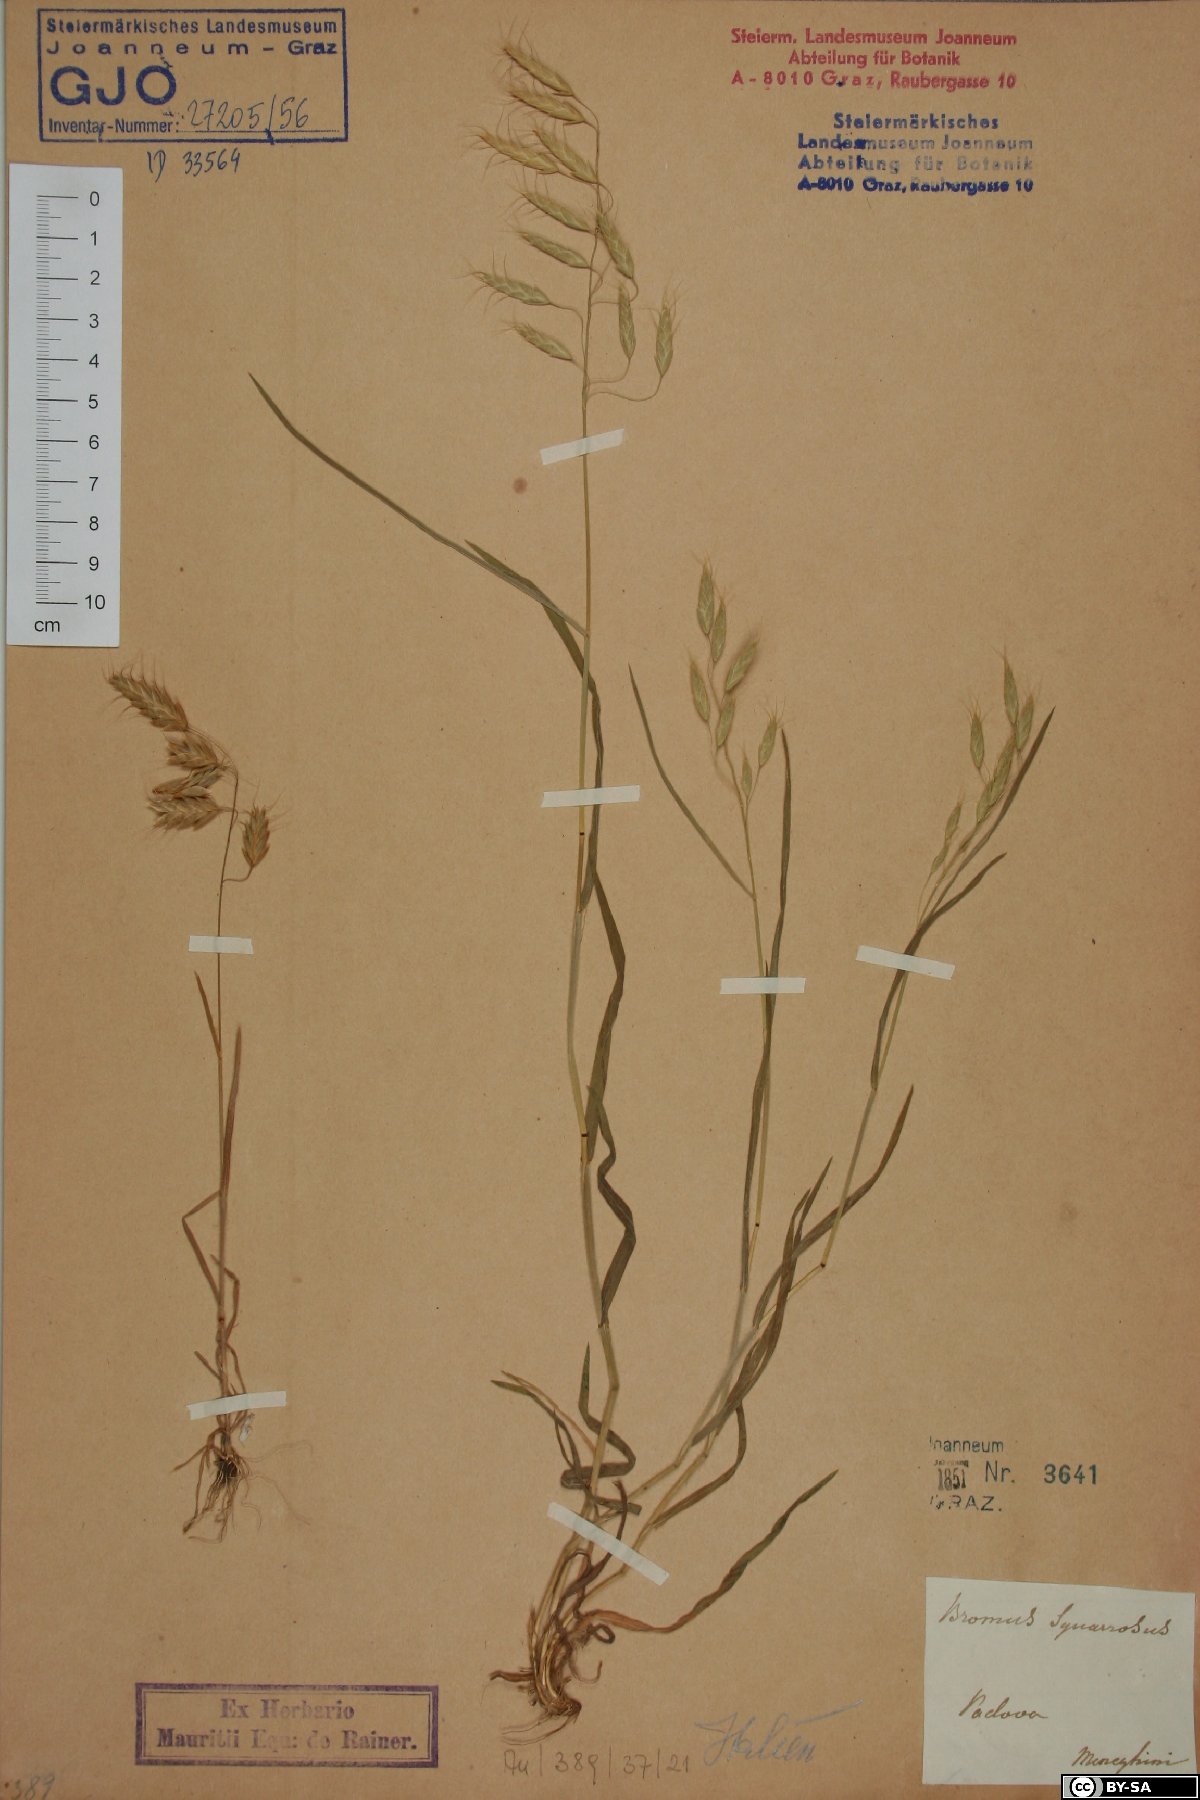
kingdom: Plantae
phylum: Tracheophyta
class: Liliopsida
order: Poales
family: Poaceae
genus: Bromus
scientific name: Bromus squarrosus
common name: Corn brome
